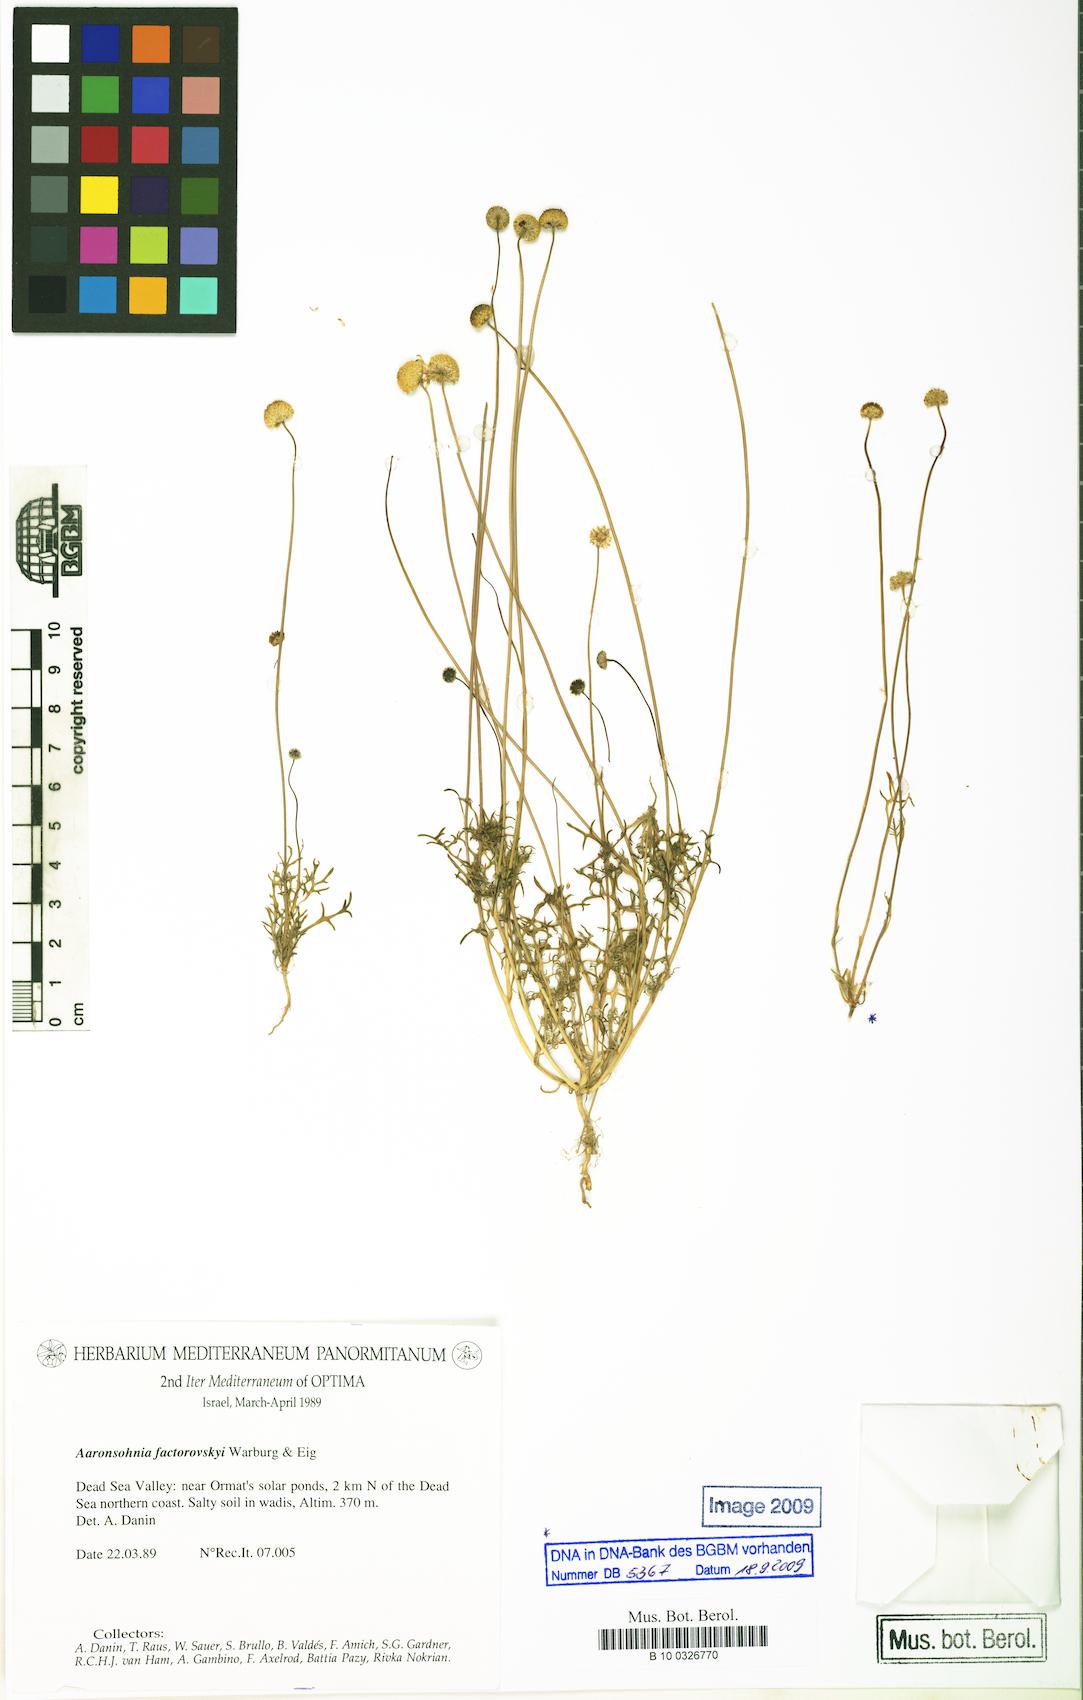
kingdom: Plantae
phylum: Tracheophyta
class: Magnoliopsida
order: Asterales
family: Asteraceae
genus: Otoglyphis
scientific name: Otoglyphis factorovskyi
